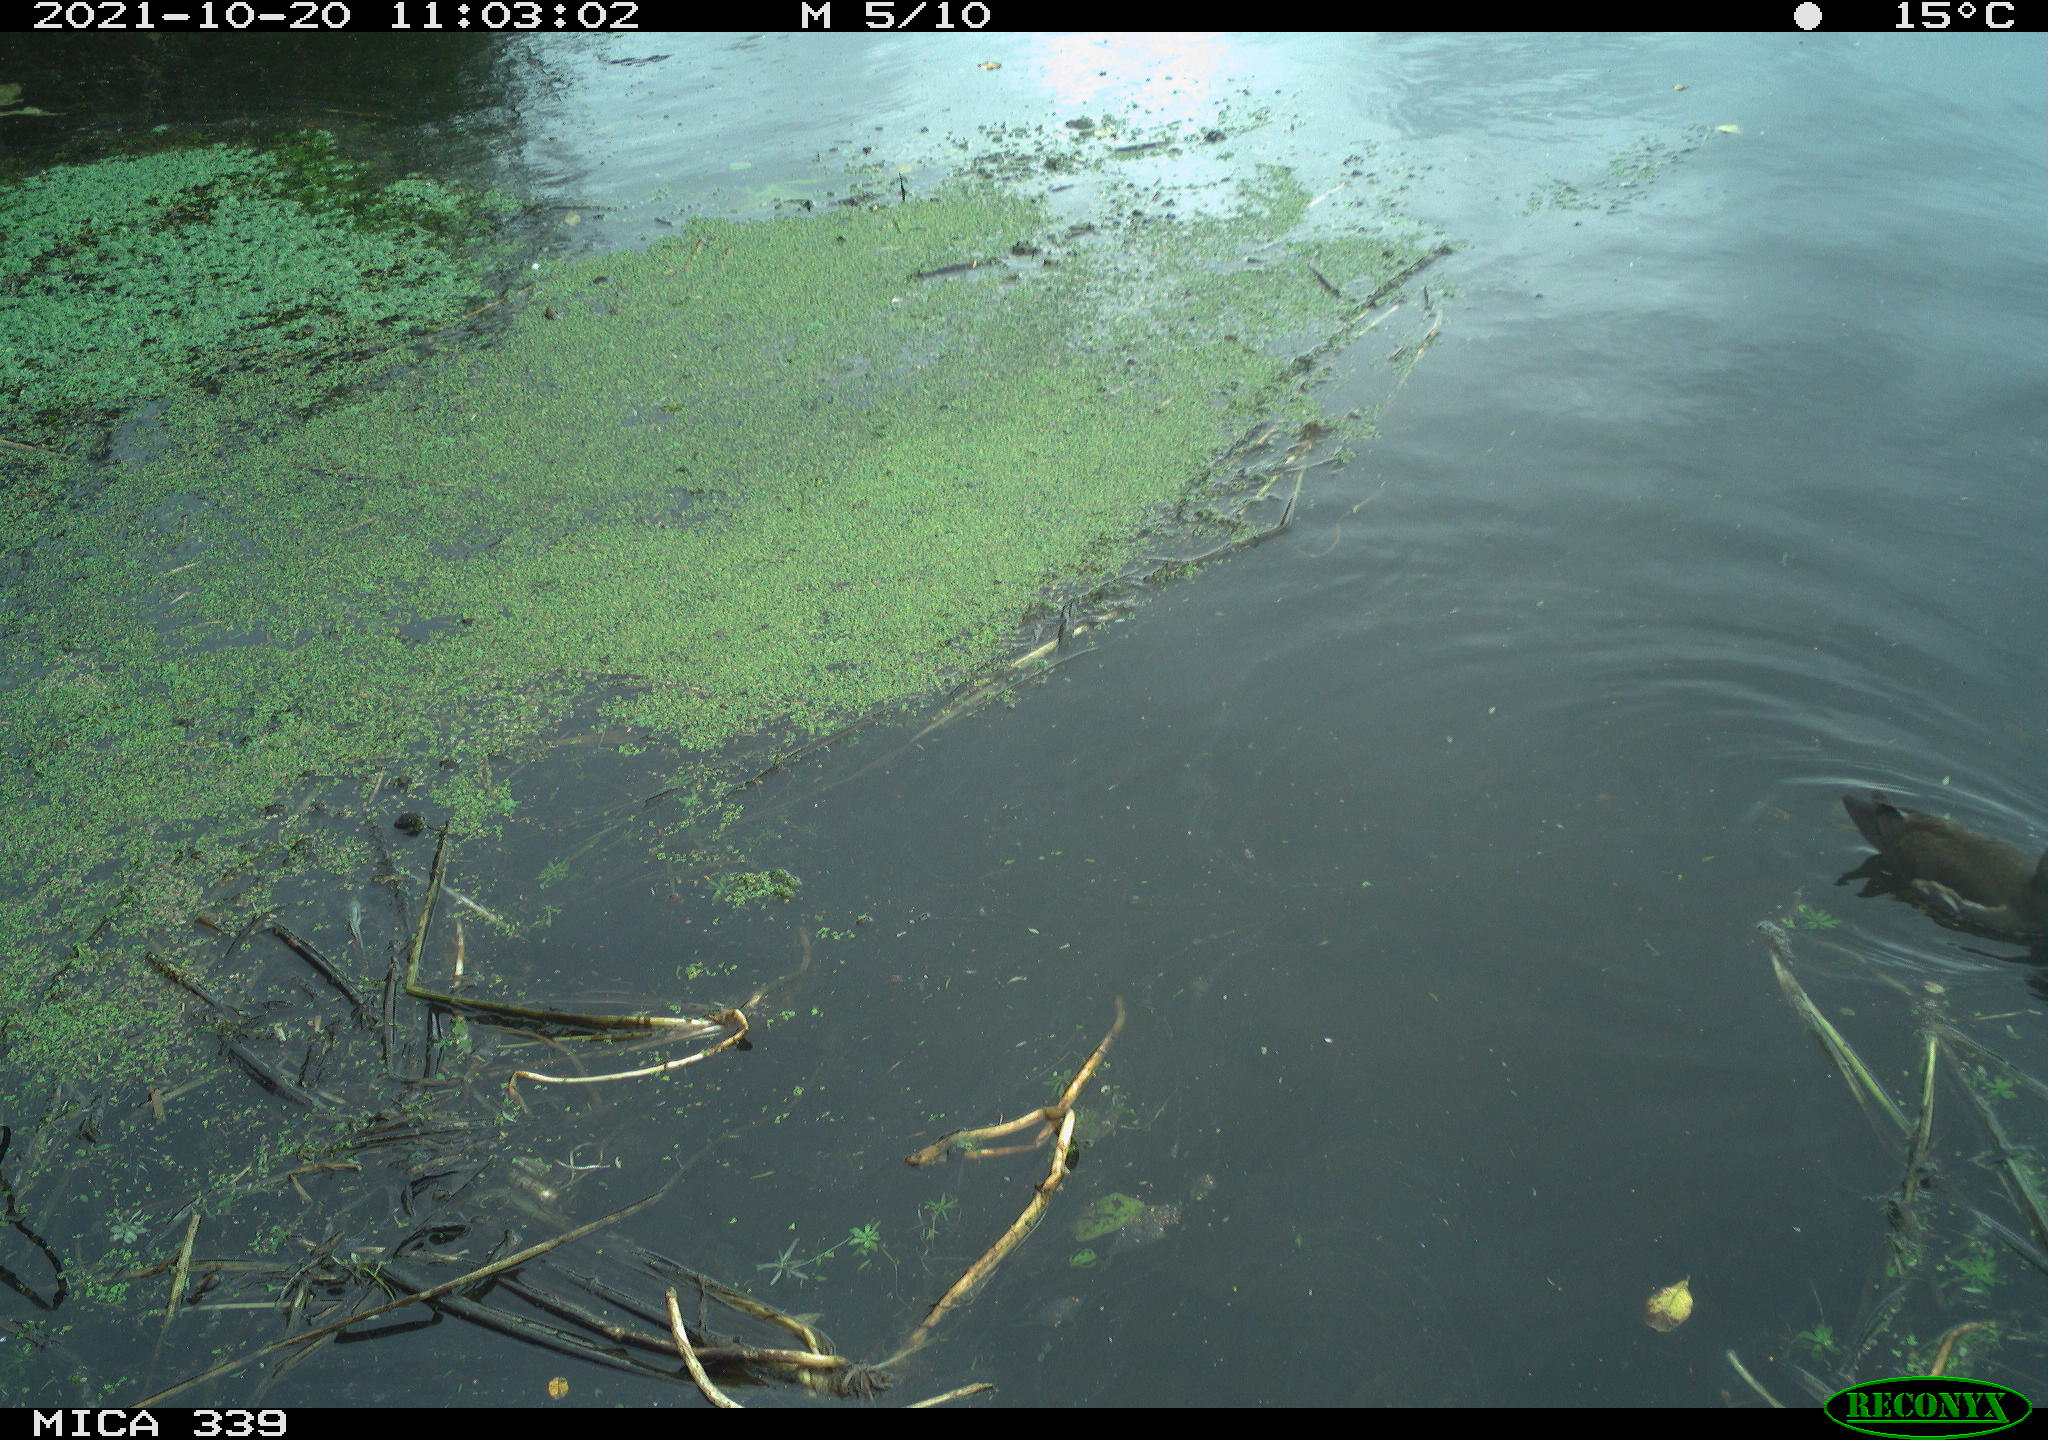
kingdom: Animalia
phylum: Chordata
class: Aves
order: Gruiformes
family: Rallidae
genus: Gallinula
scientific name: Gallinula chloropus
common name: Common moorhen
